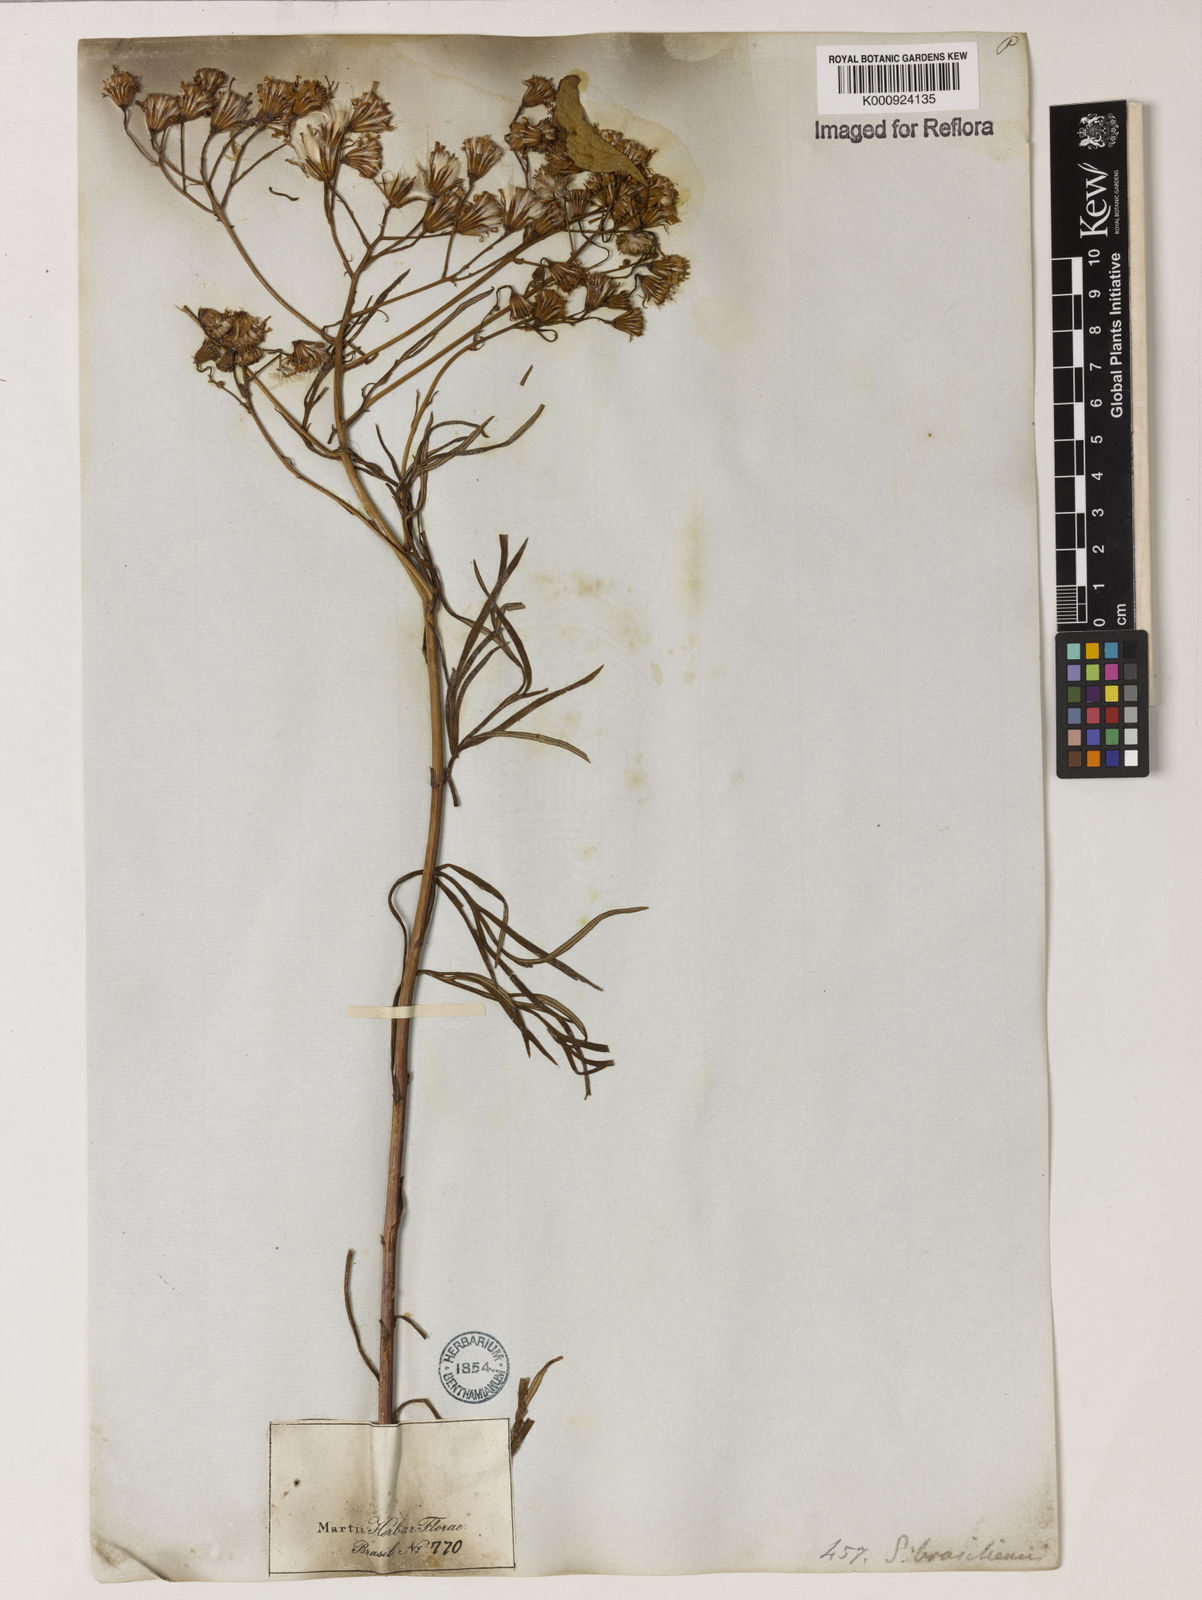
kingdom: Plantae
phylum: Tracheophyta
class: Magnoliopsida
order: Asterales
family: Asteraceae
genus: Senecio
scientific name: Senecio brasiliensis
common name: Hemp-leaf ragwort
